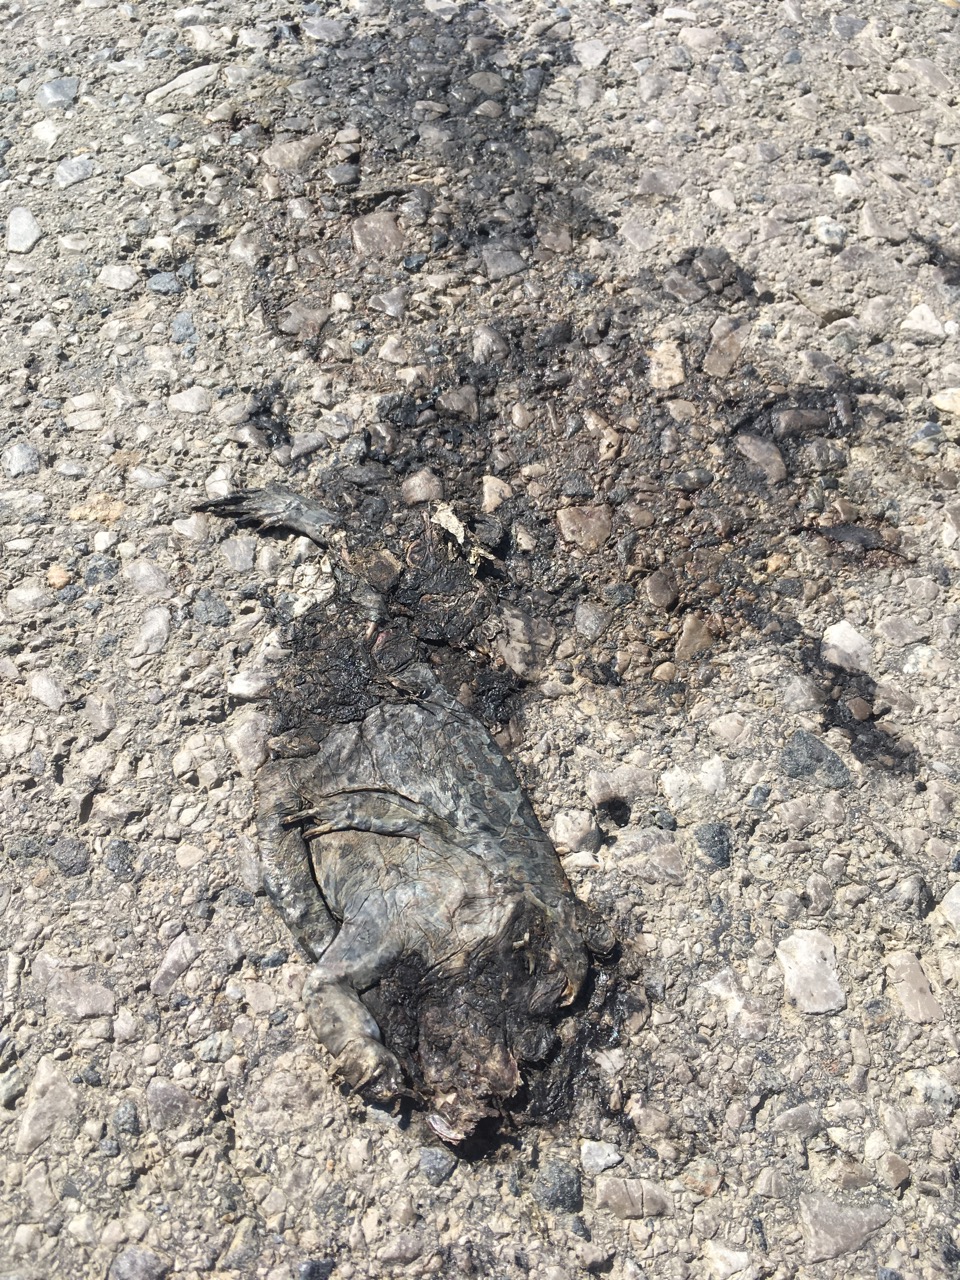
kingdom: Animalia
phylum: Chordata
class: Amphibia
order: Anura
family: Bufonidae
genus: Bufotes
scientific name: Bufotes viridis
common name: European green toad
